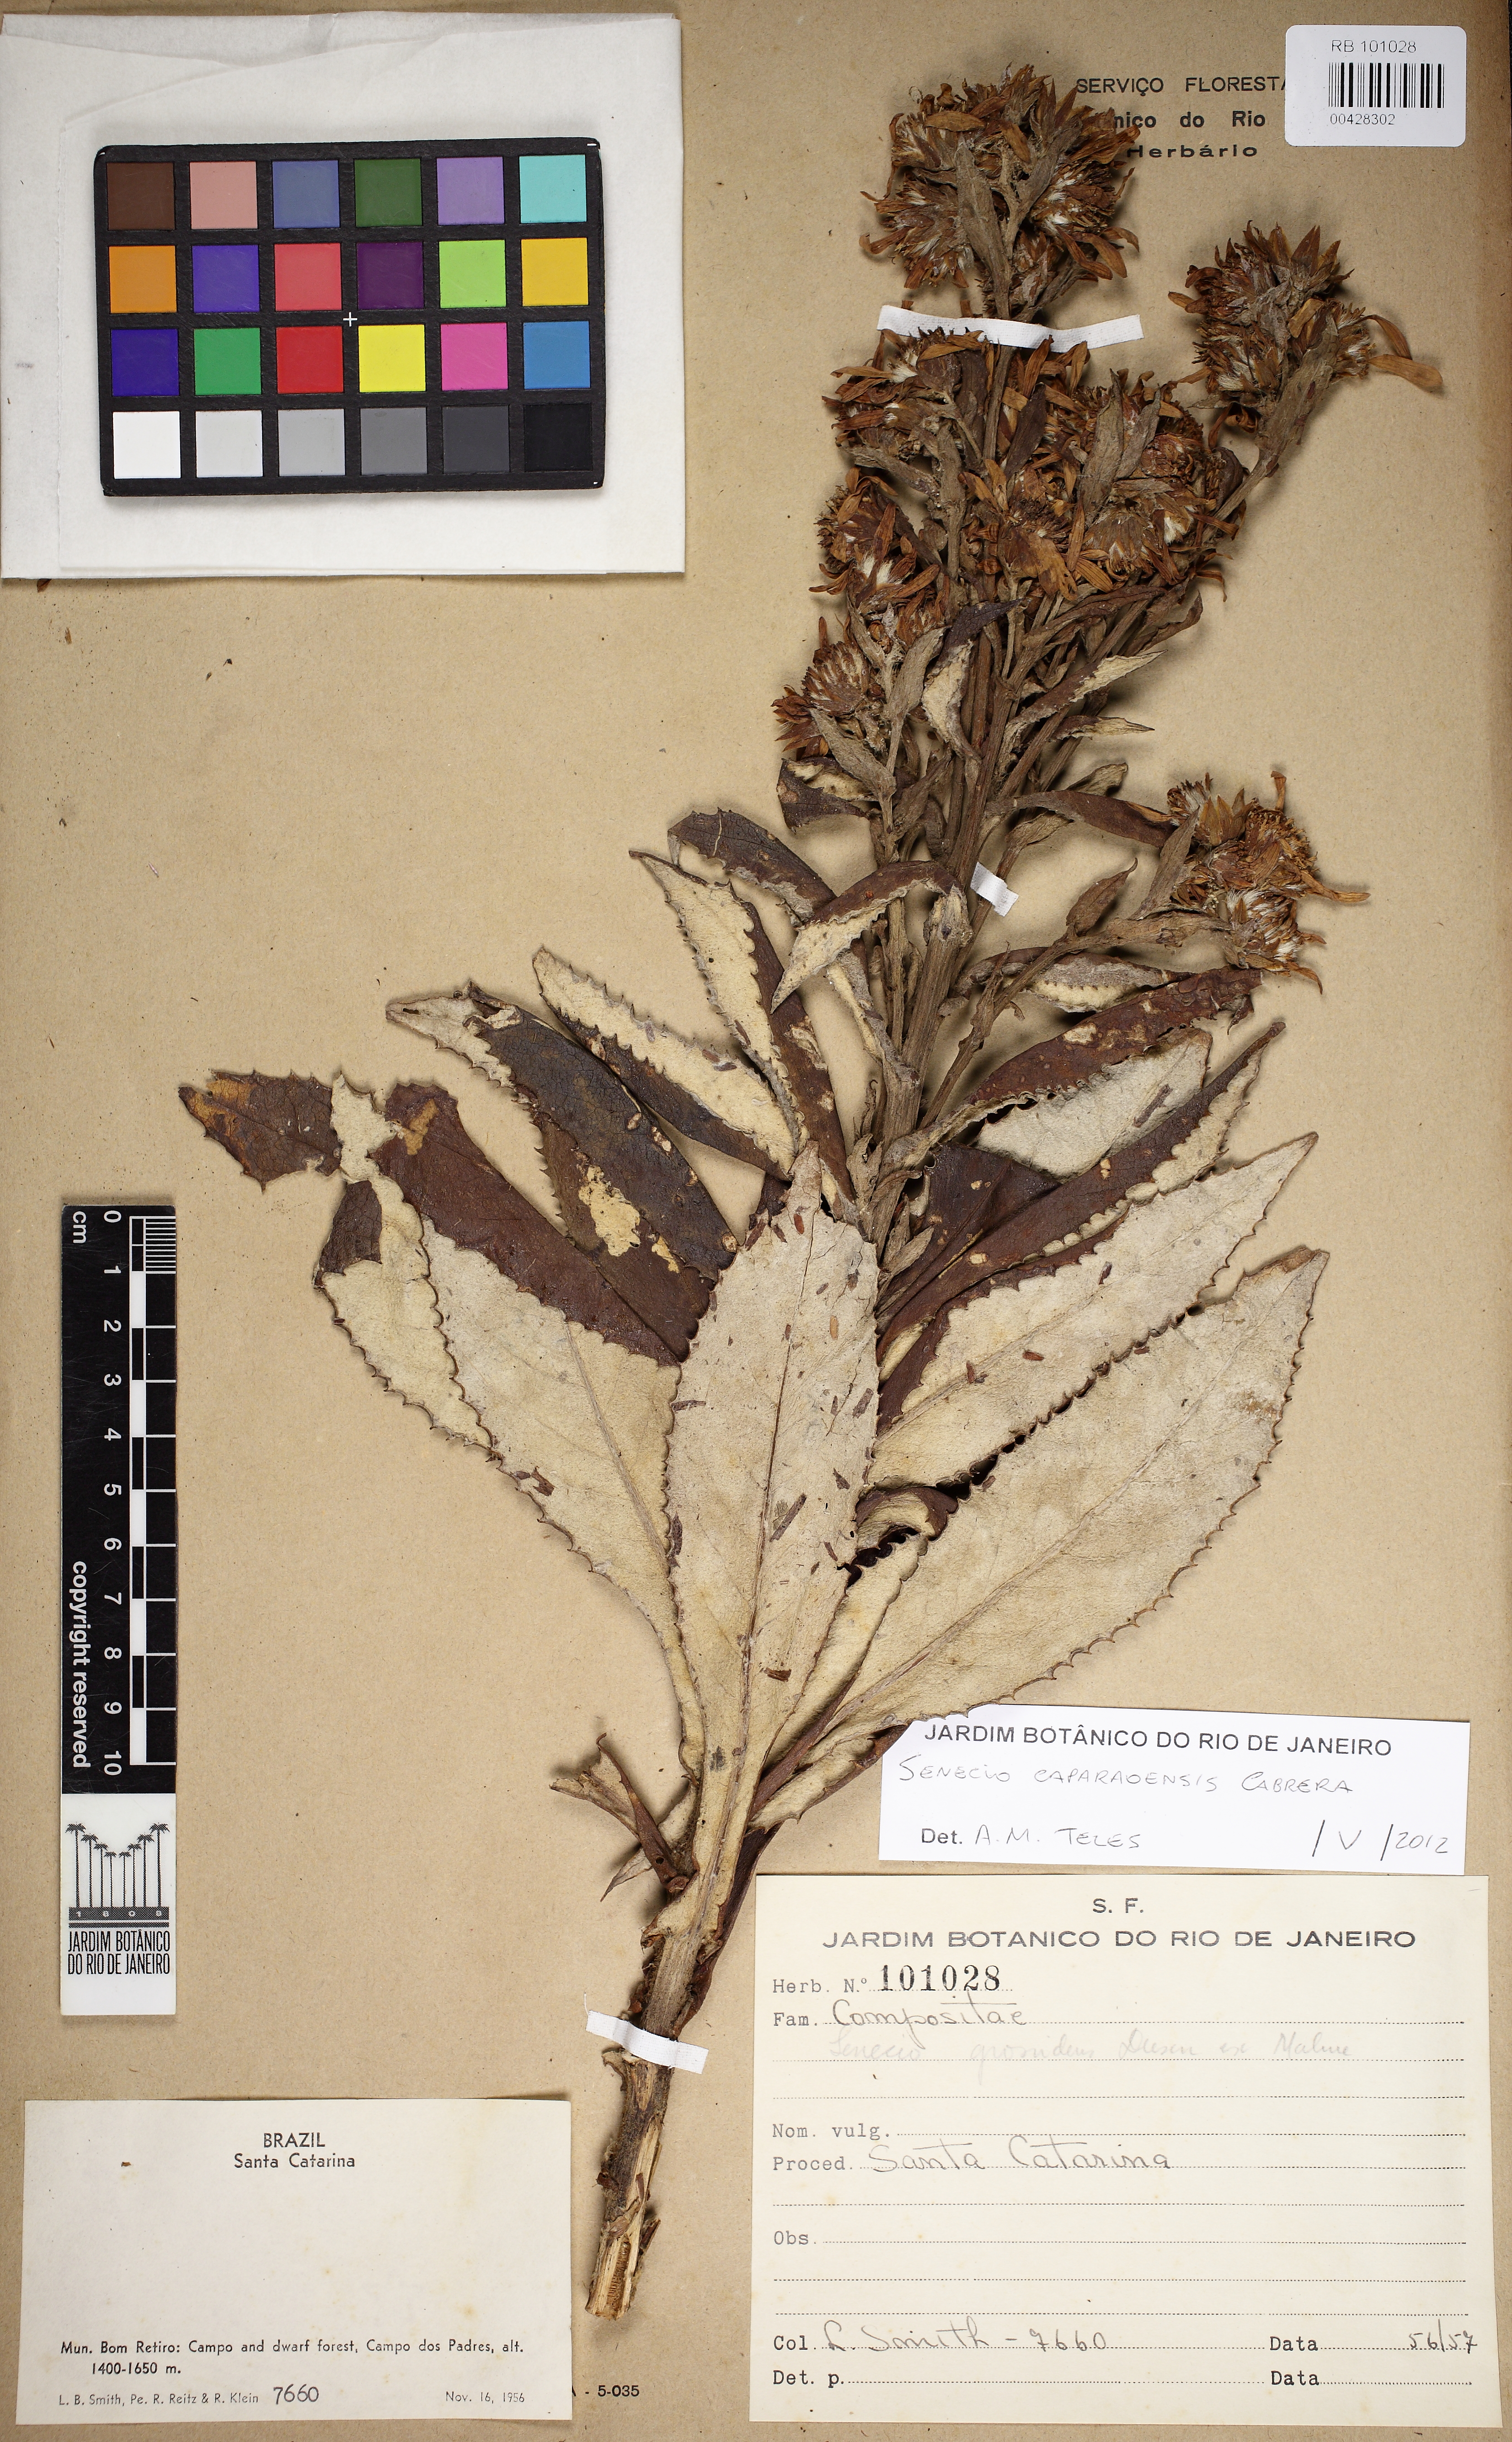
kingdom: Plantae
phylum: Tracheophyta
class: Magnoliopsida
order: Asterales
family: Asteraceae
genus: Senecio
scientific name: Senecio caparaoensis
